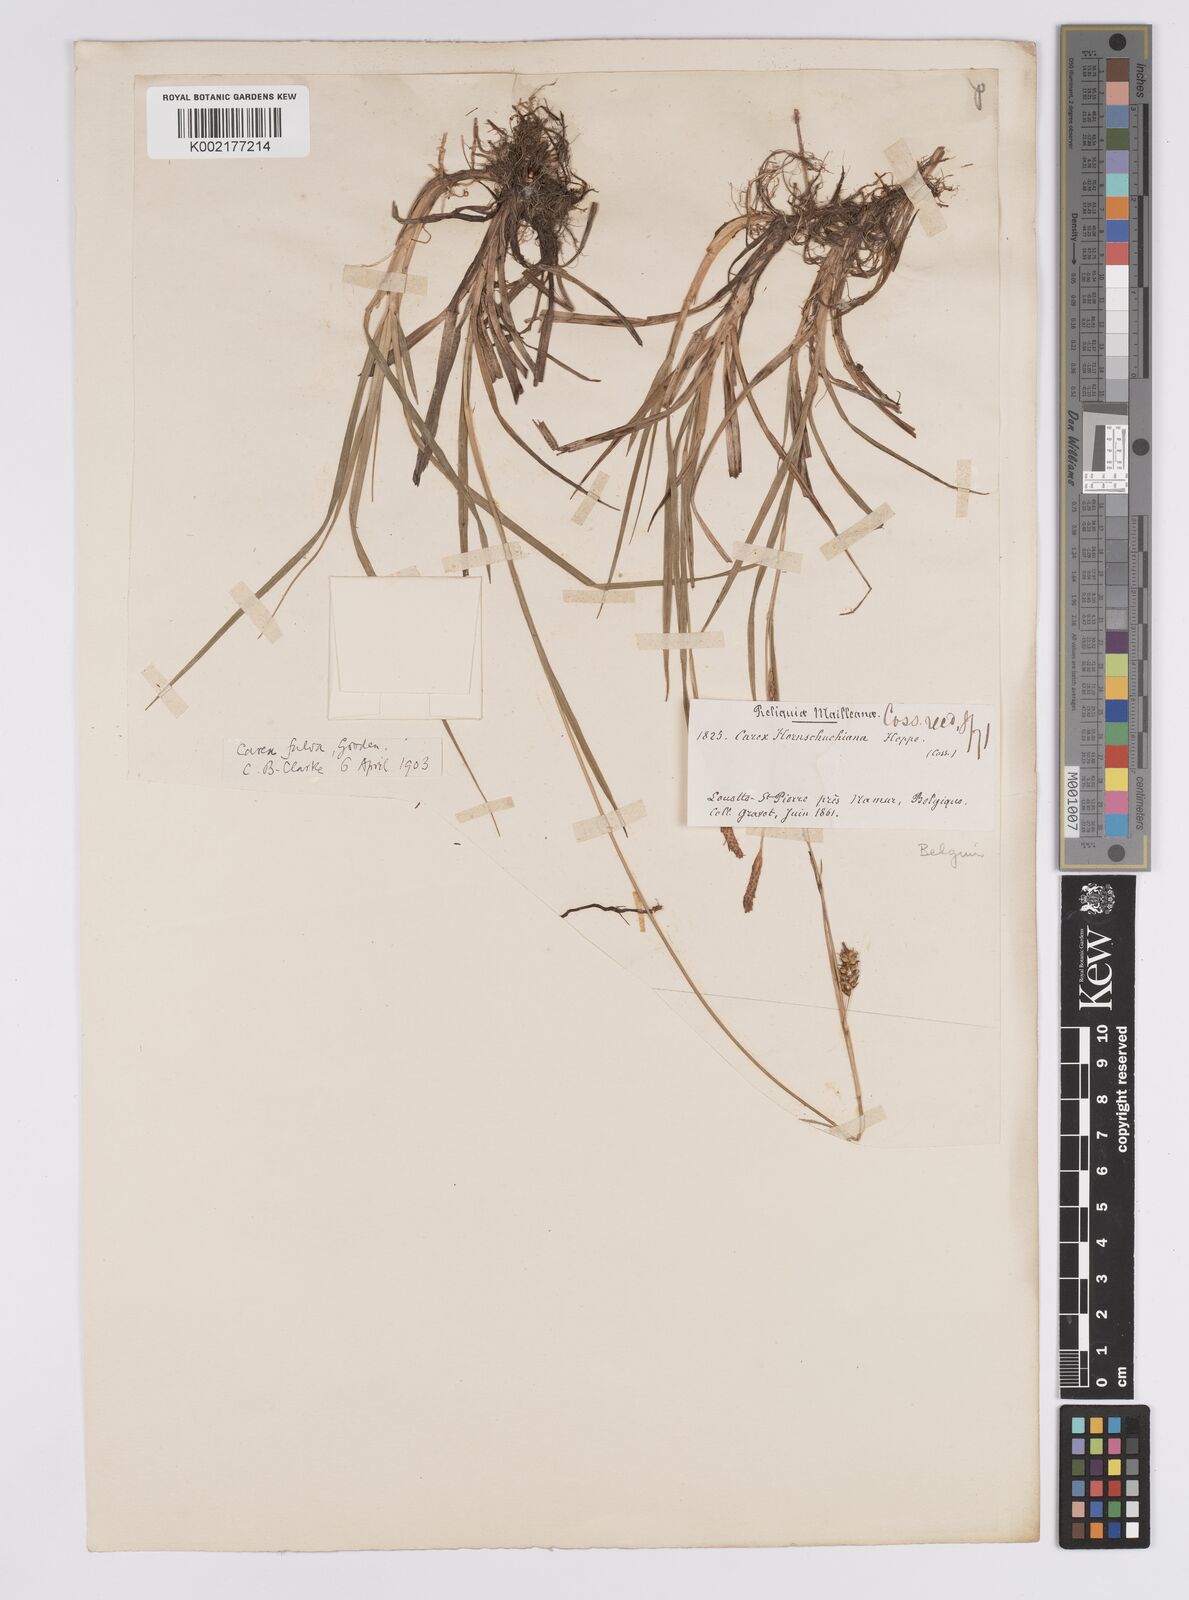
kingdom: Plantae
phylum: Tracheophyta
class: Liliopsida
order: Poales
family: Cyperaceae
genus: Carex
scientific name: Carex hostiana
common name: Tawny sedge
